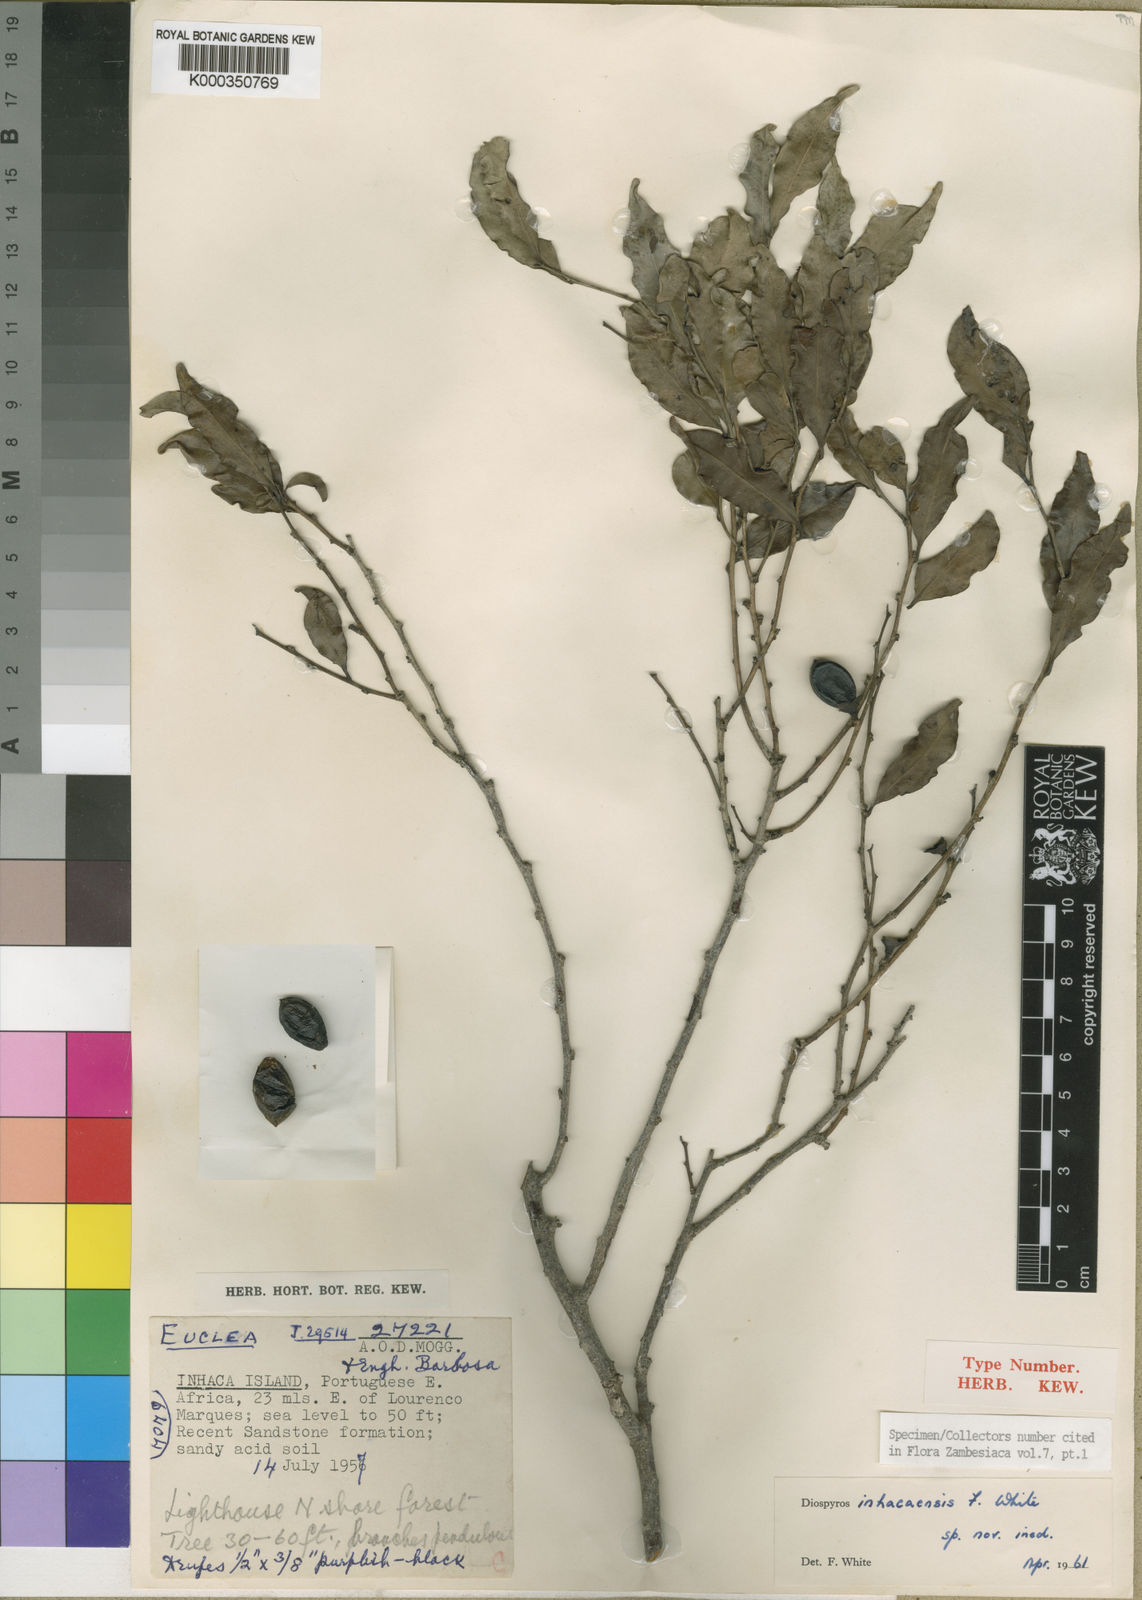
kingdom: Plantae
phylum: Tracheophyta
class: Magnoliopsida
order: Ericales
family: Ebenaceae
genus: Diospyros
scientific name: Diospyros inhacaensis
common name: Coastal jackal-berry
